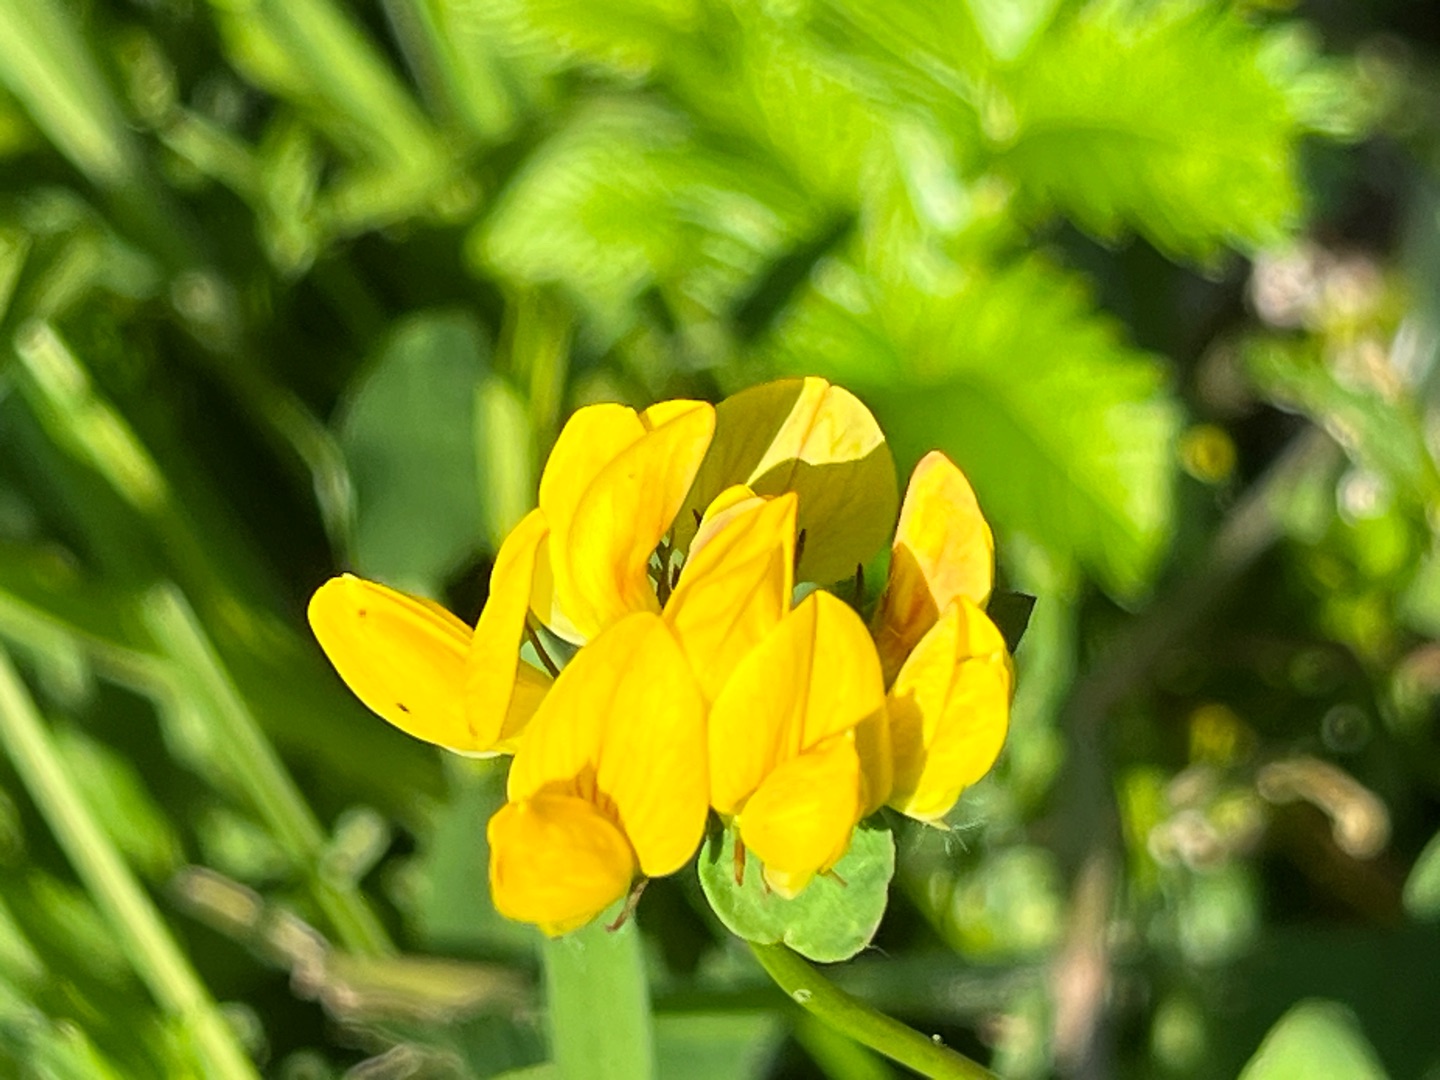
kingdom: Plantae
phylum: Tracheophyta
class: Magnoliopsida
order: Fabales
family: Fabaceae
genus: Lotus
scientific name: Lotus pedunculatus
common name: Sump-kællingetand
